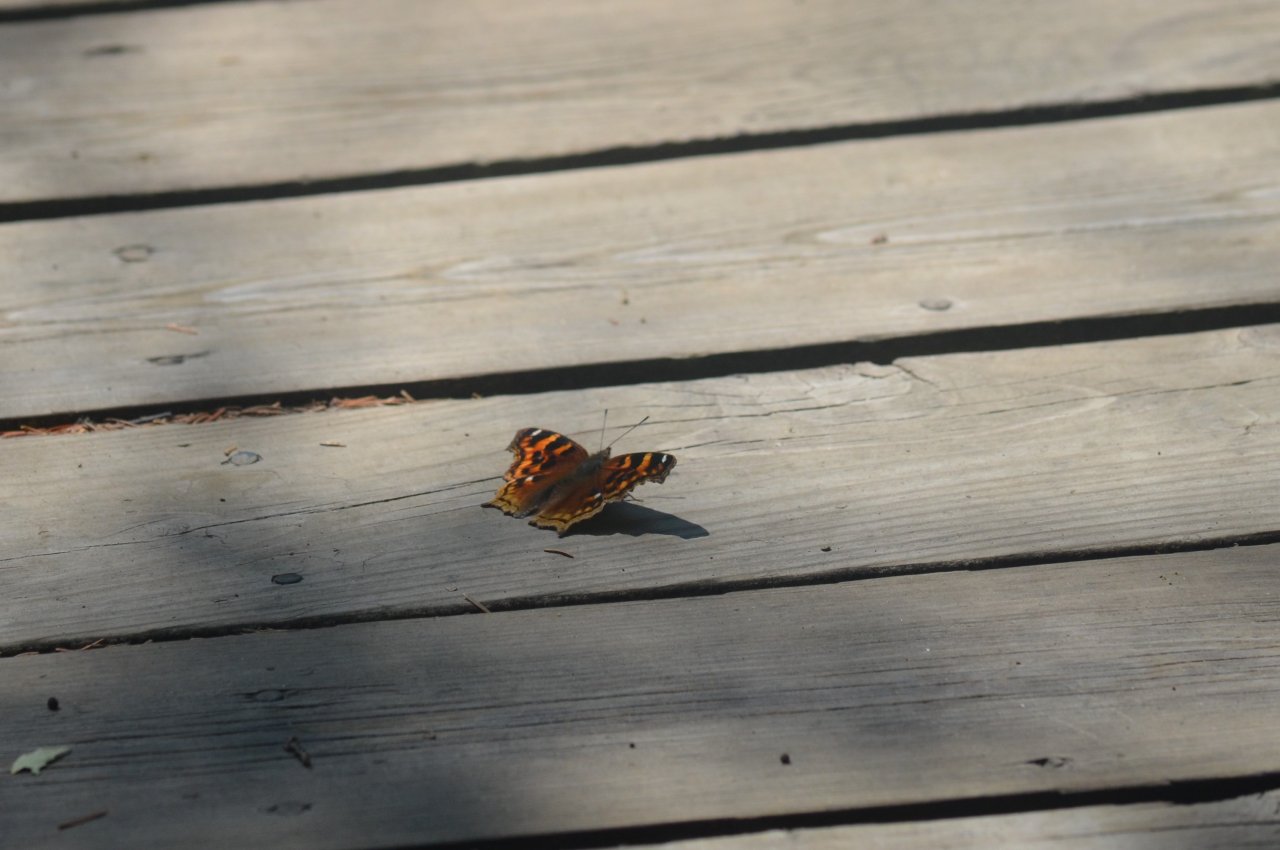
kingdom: Animalia
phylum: Arthropoda
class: Insecta
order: Lepidoptera
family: Nymphalidae
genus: Polygonia
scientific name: Polygonia vaualbum
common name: Compton Tortoiseshell
